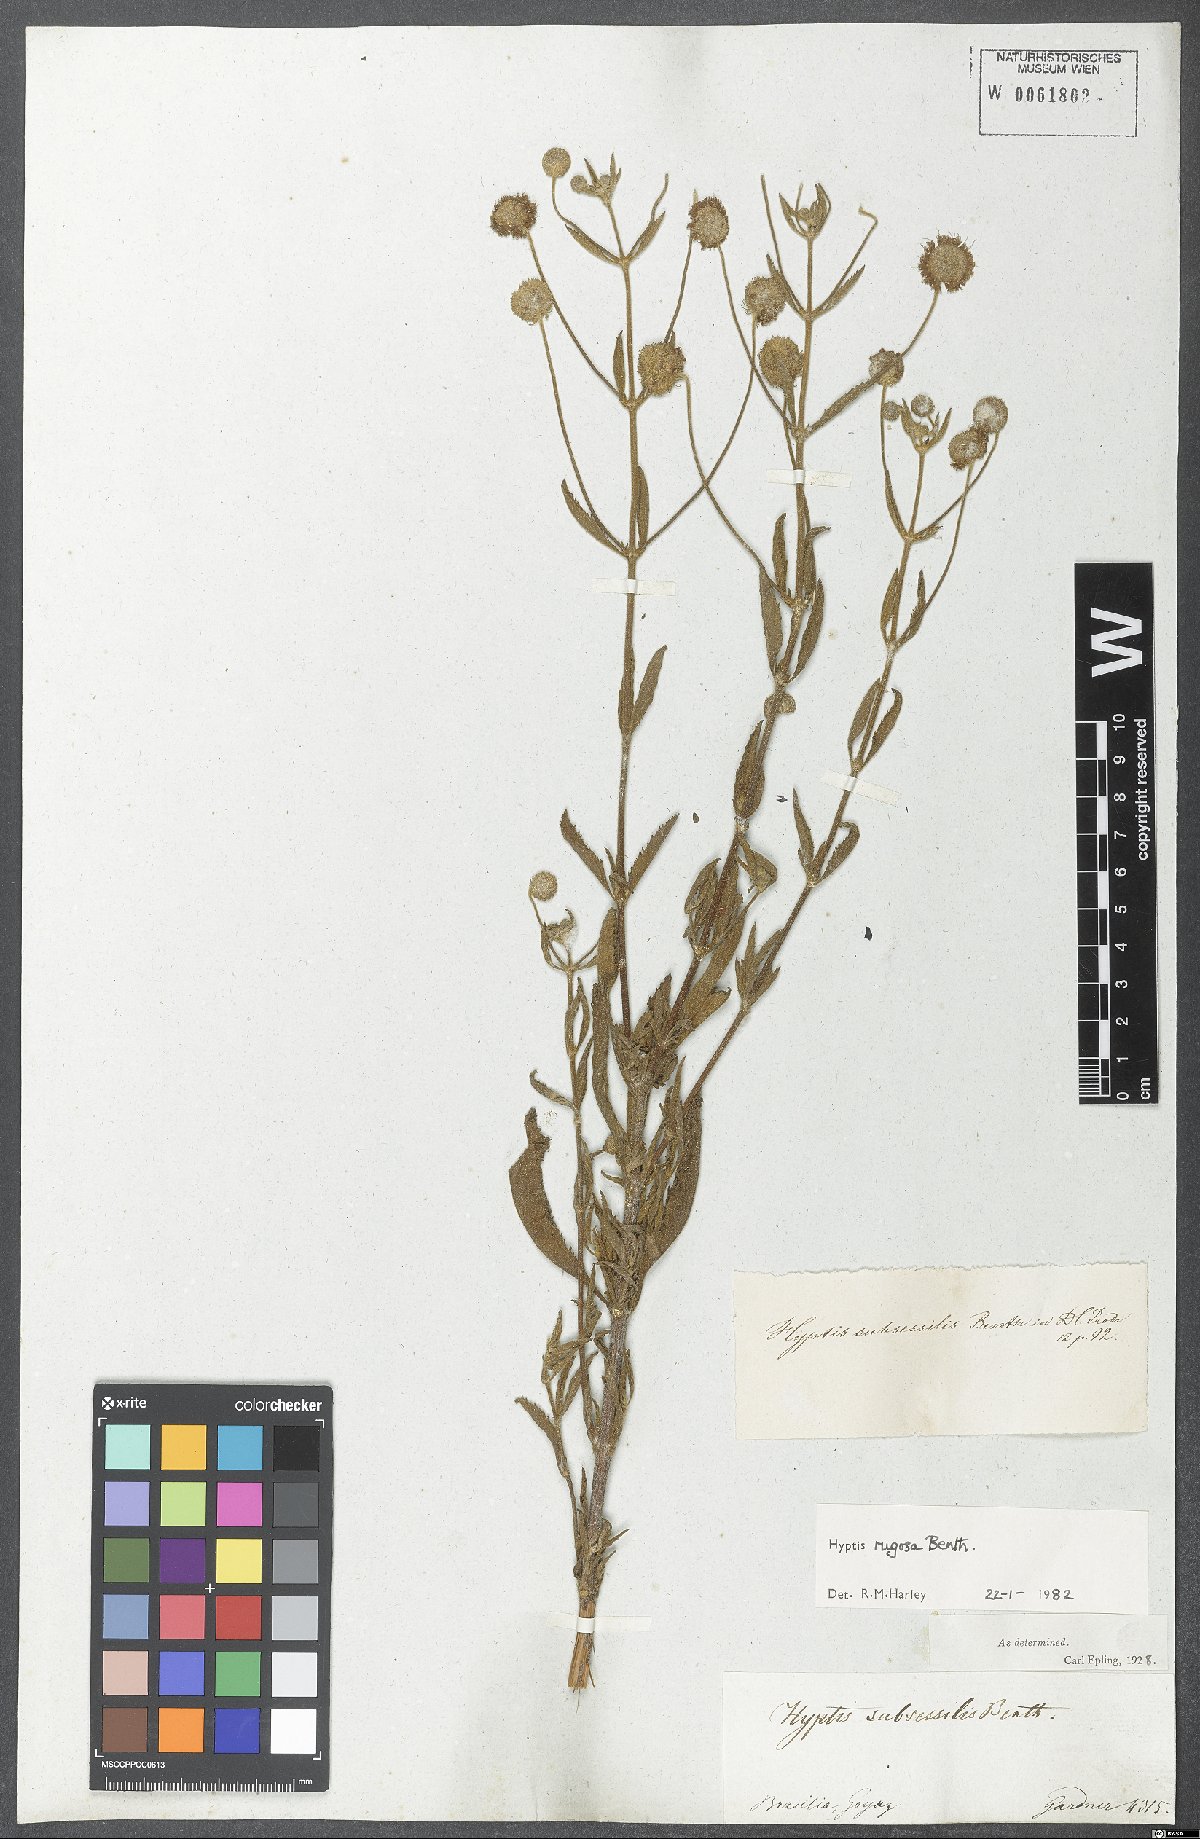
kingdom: Plantae
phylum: Tracheophyta
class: Magnoliopsida
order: Lamiales
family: Lamiaceae
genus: Cyanocephalus
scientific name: Cyanocephalus rugosus
